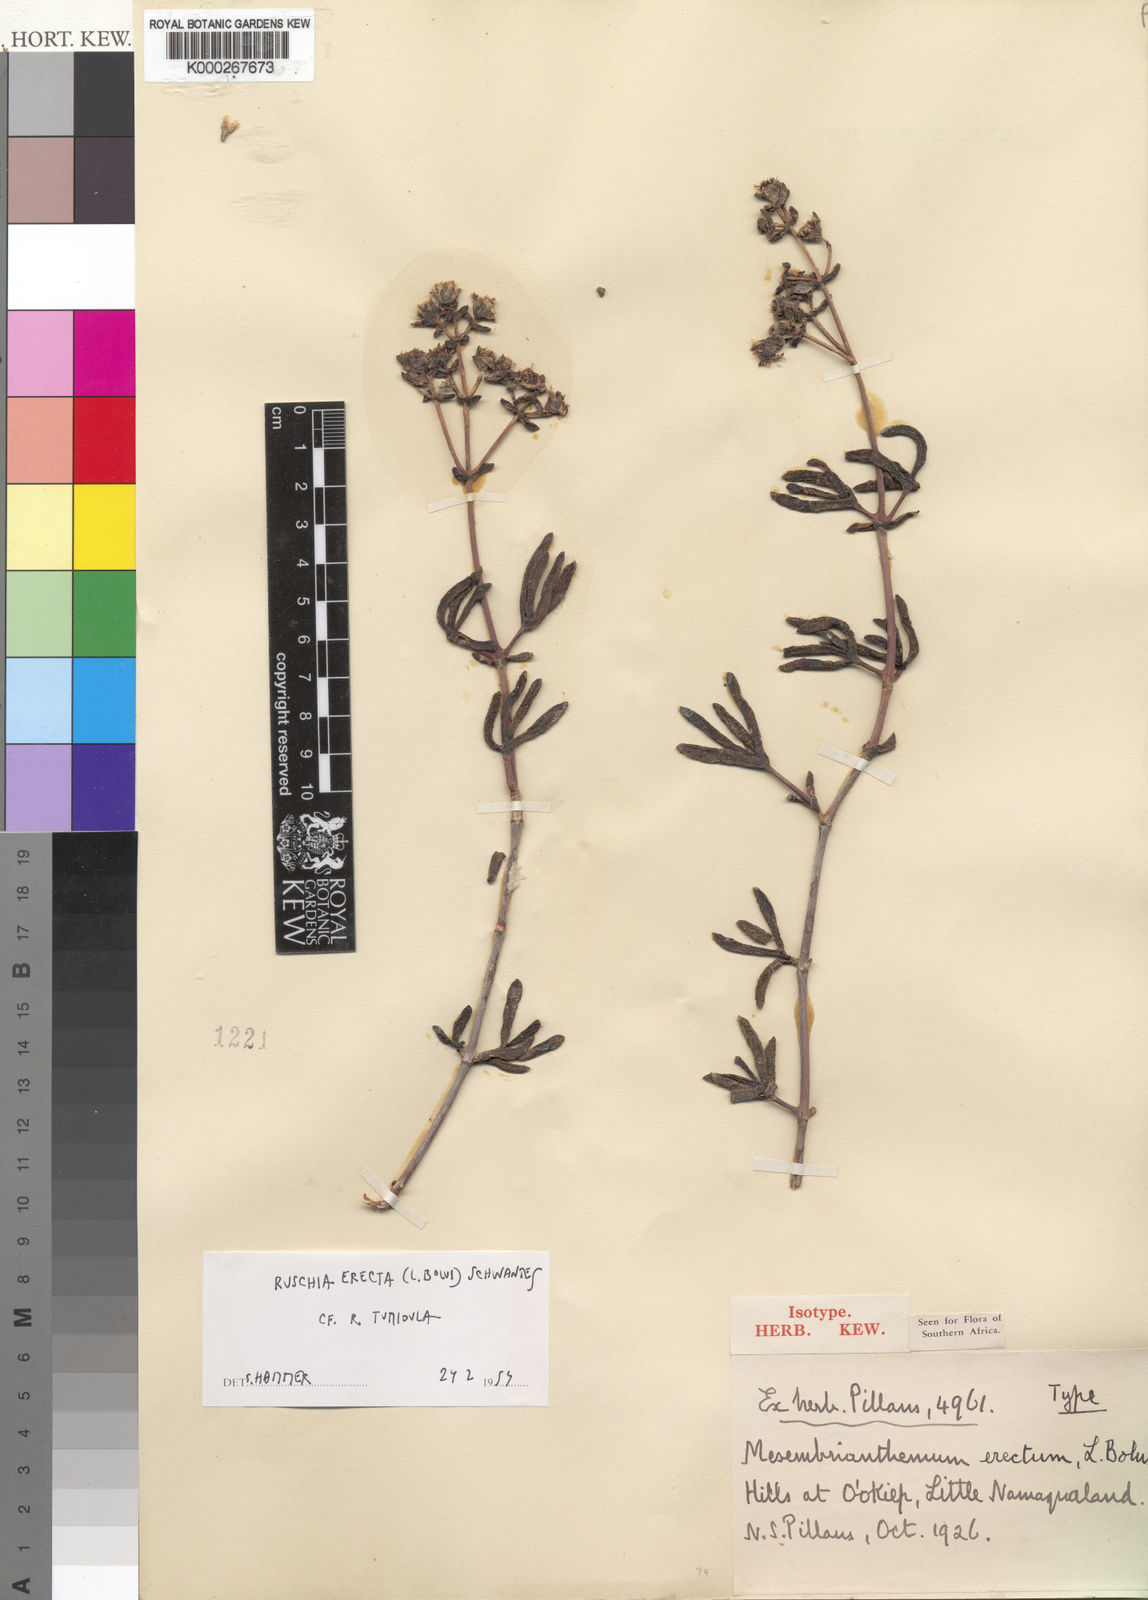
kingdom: Plantae
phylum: Tracheophyta
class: Magnoliopsida
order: Caryophyllales
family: Aizoaceae
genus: Ruschia
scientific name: Ruschia erecta
